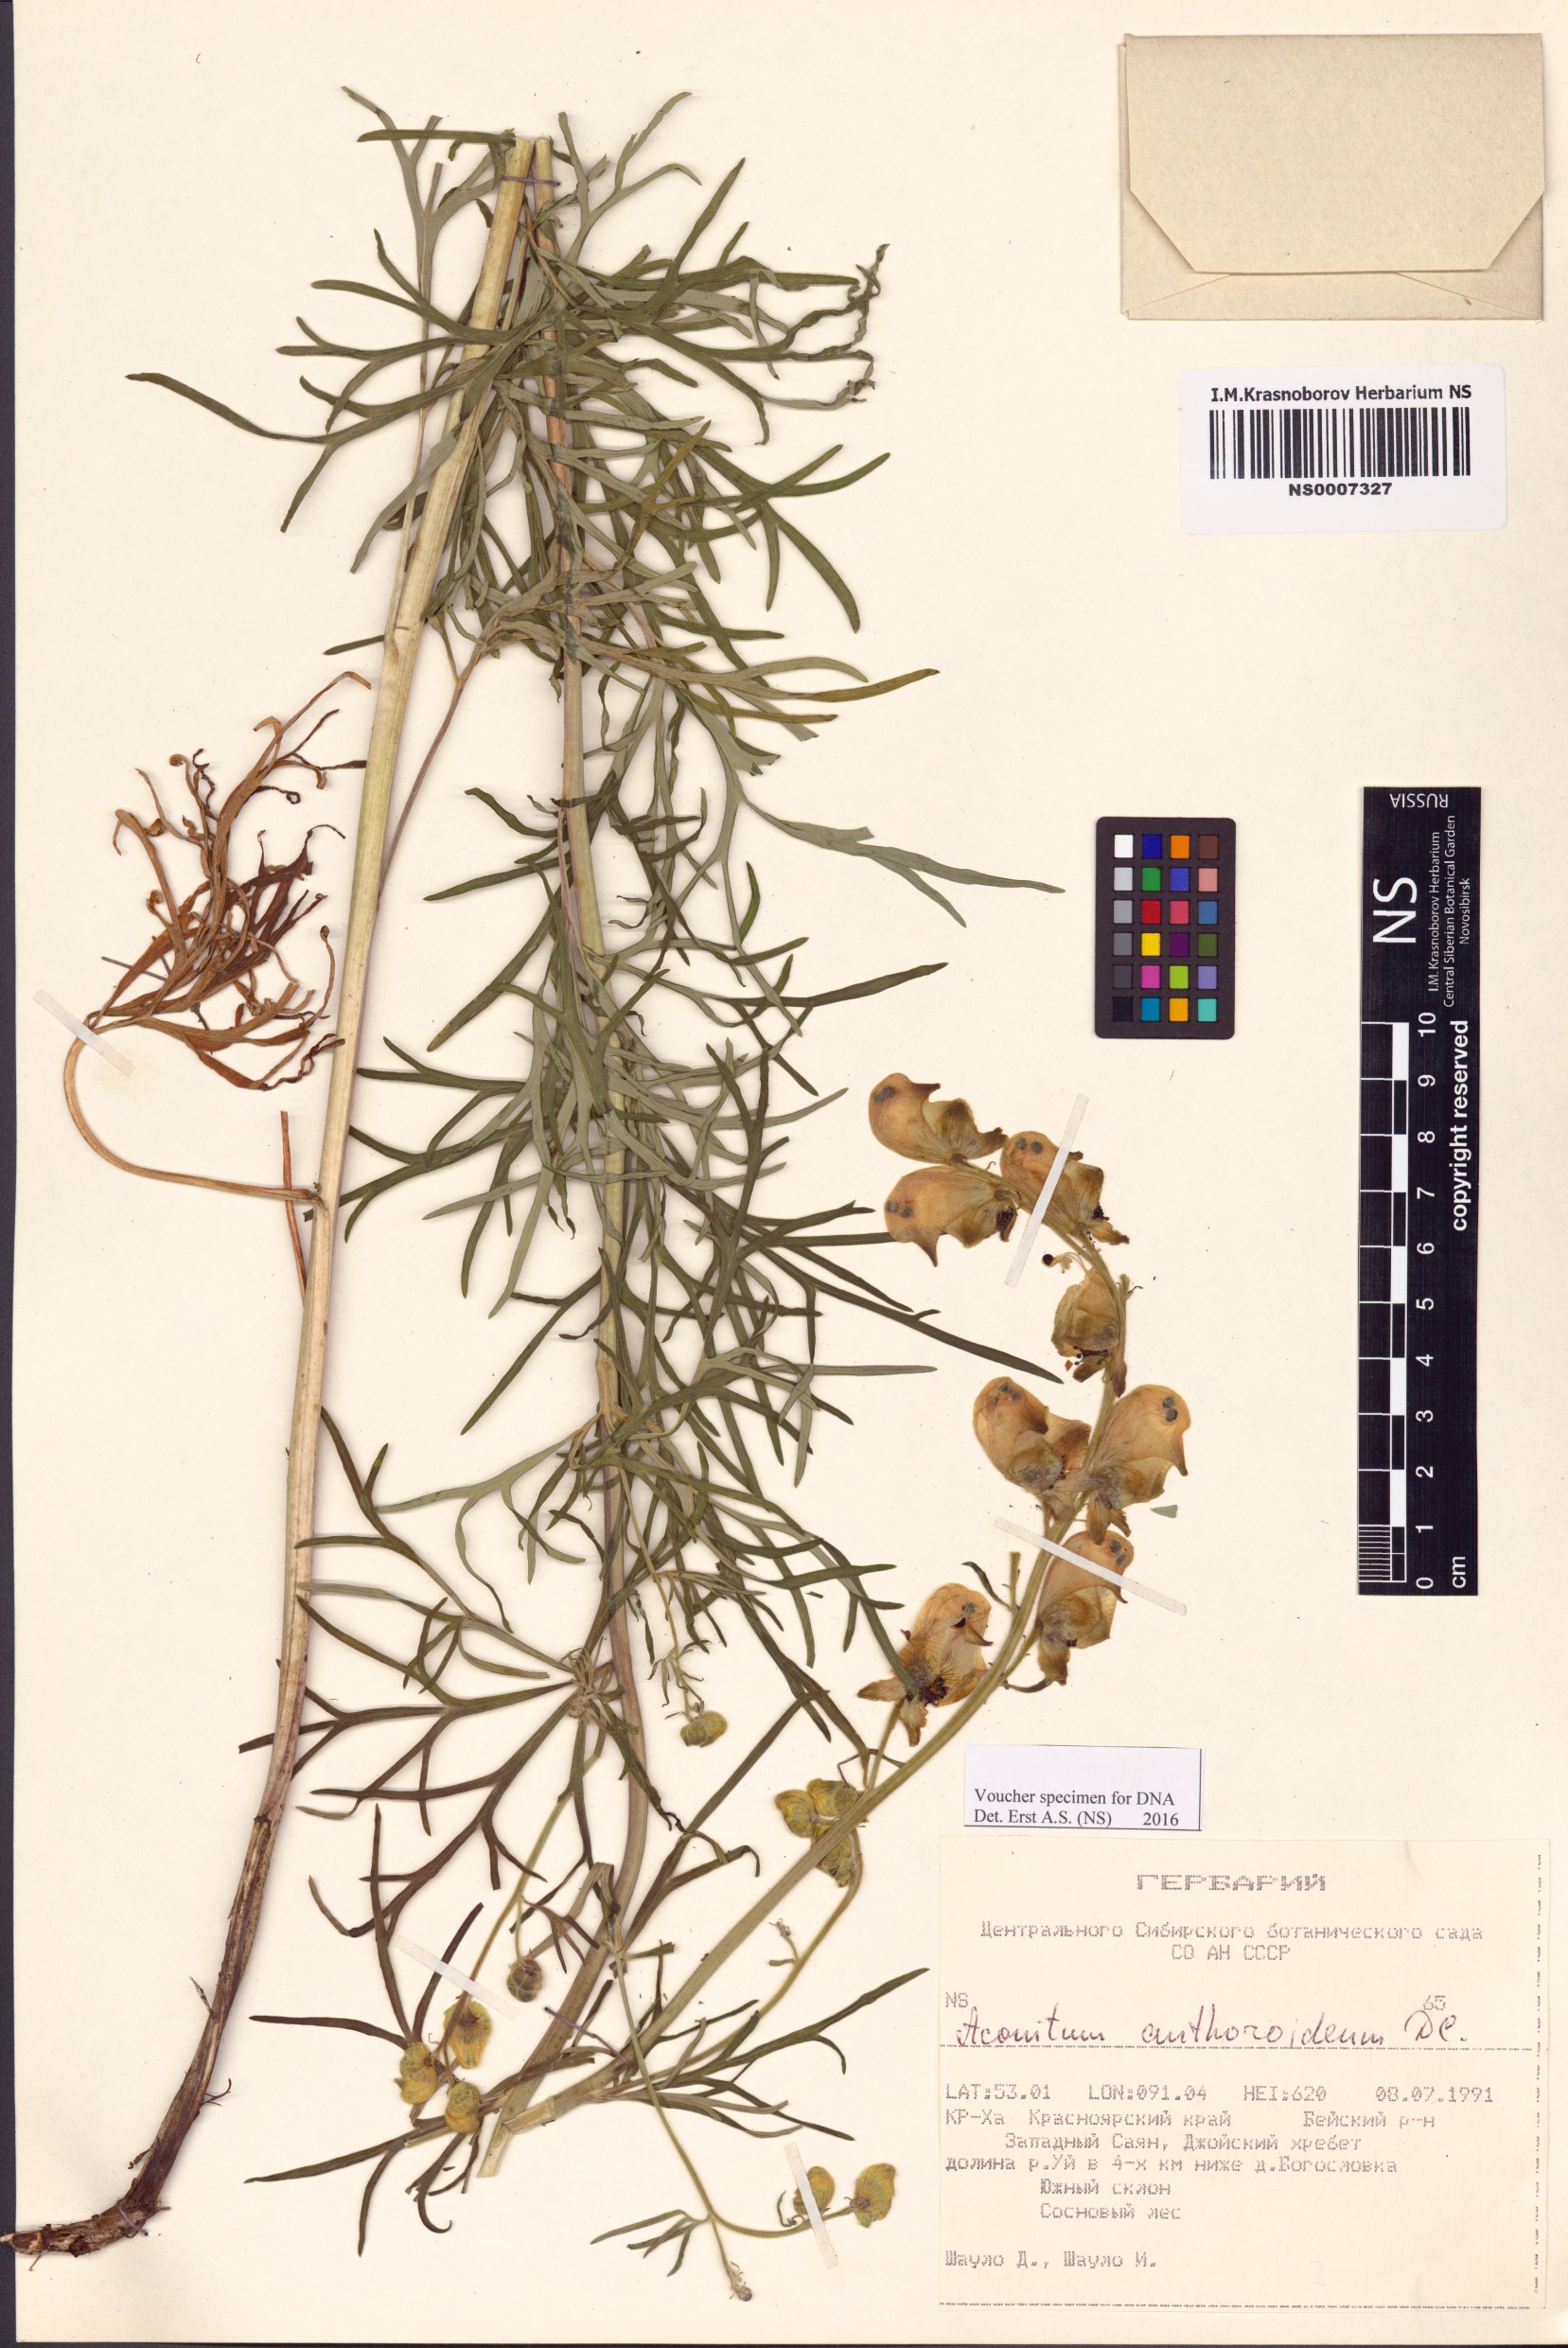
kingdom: Plantae
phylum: Tracheophyta
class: Magnoliopsida
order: Ranunculales
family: Ranunculaceae
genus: Aconitum
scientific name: Aconitum anthoroideum
